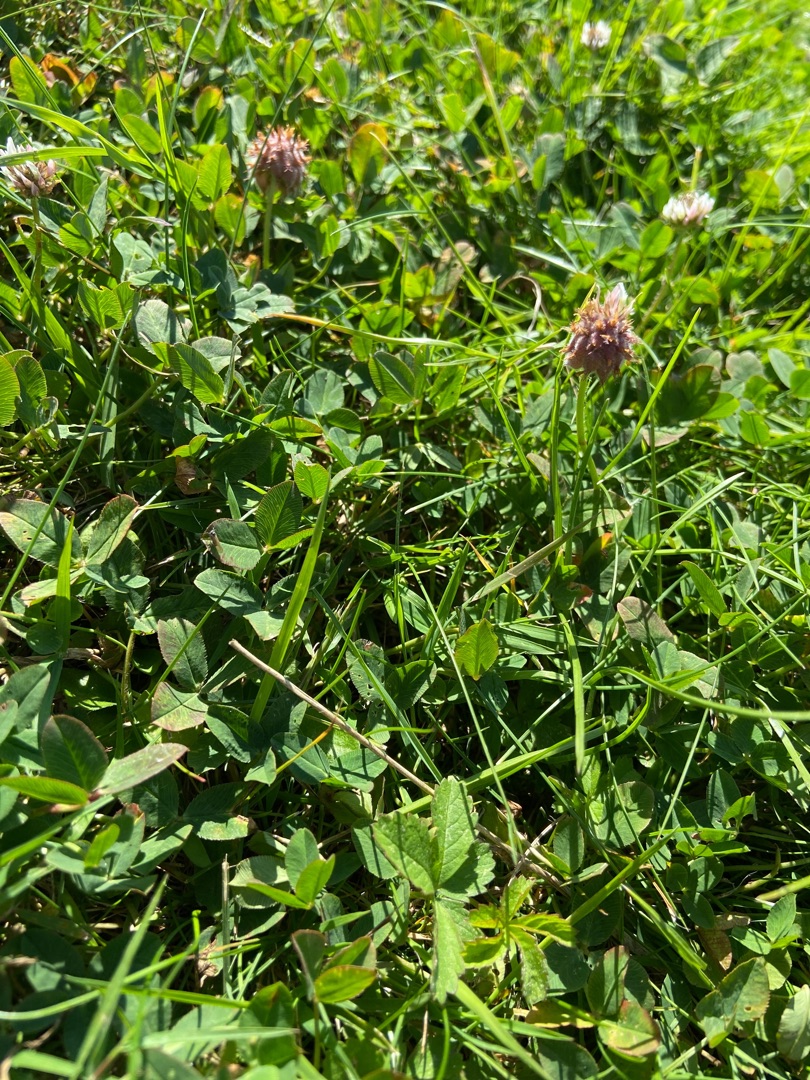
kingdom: Plantae
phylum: Tracheophyta
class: Magnoliopsida
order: Fabales
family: Fabaceae
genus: Trifolium
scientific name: Trifolium fragiferum
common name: Jordbær-kløver
